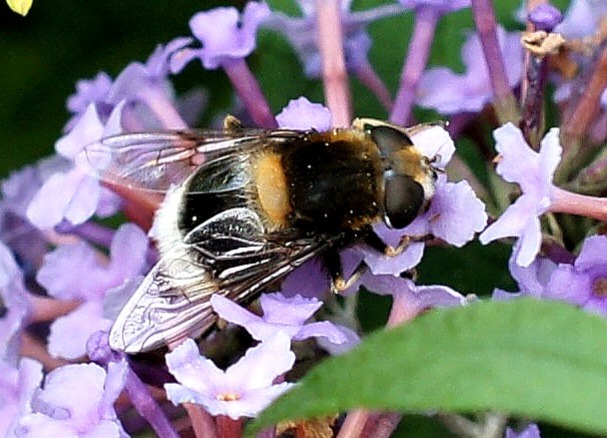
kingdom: Animalia
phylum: Arthropoda
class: Insecta
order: Diptera
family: Syrphidae
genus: Eristalis
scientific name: Eristalis intricaria
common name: Håret dyndflue
